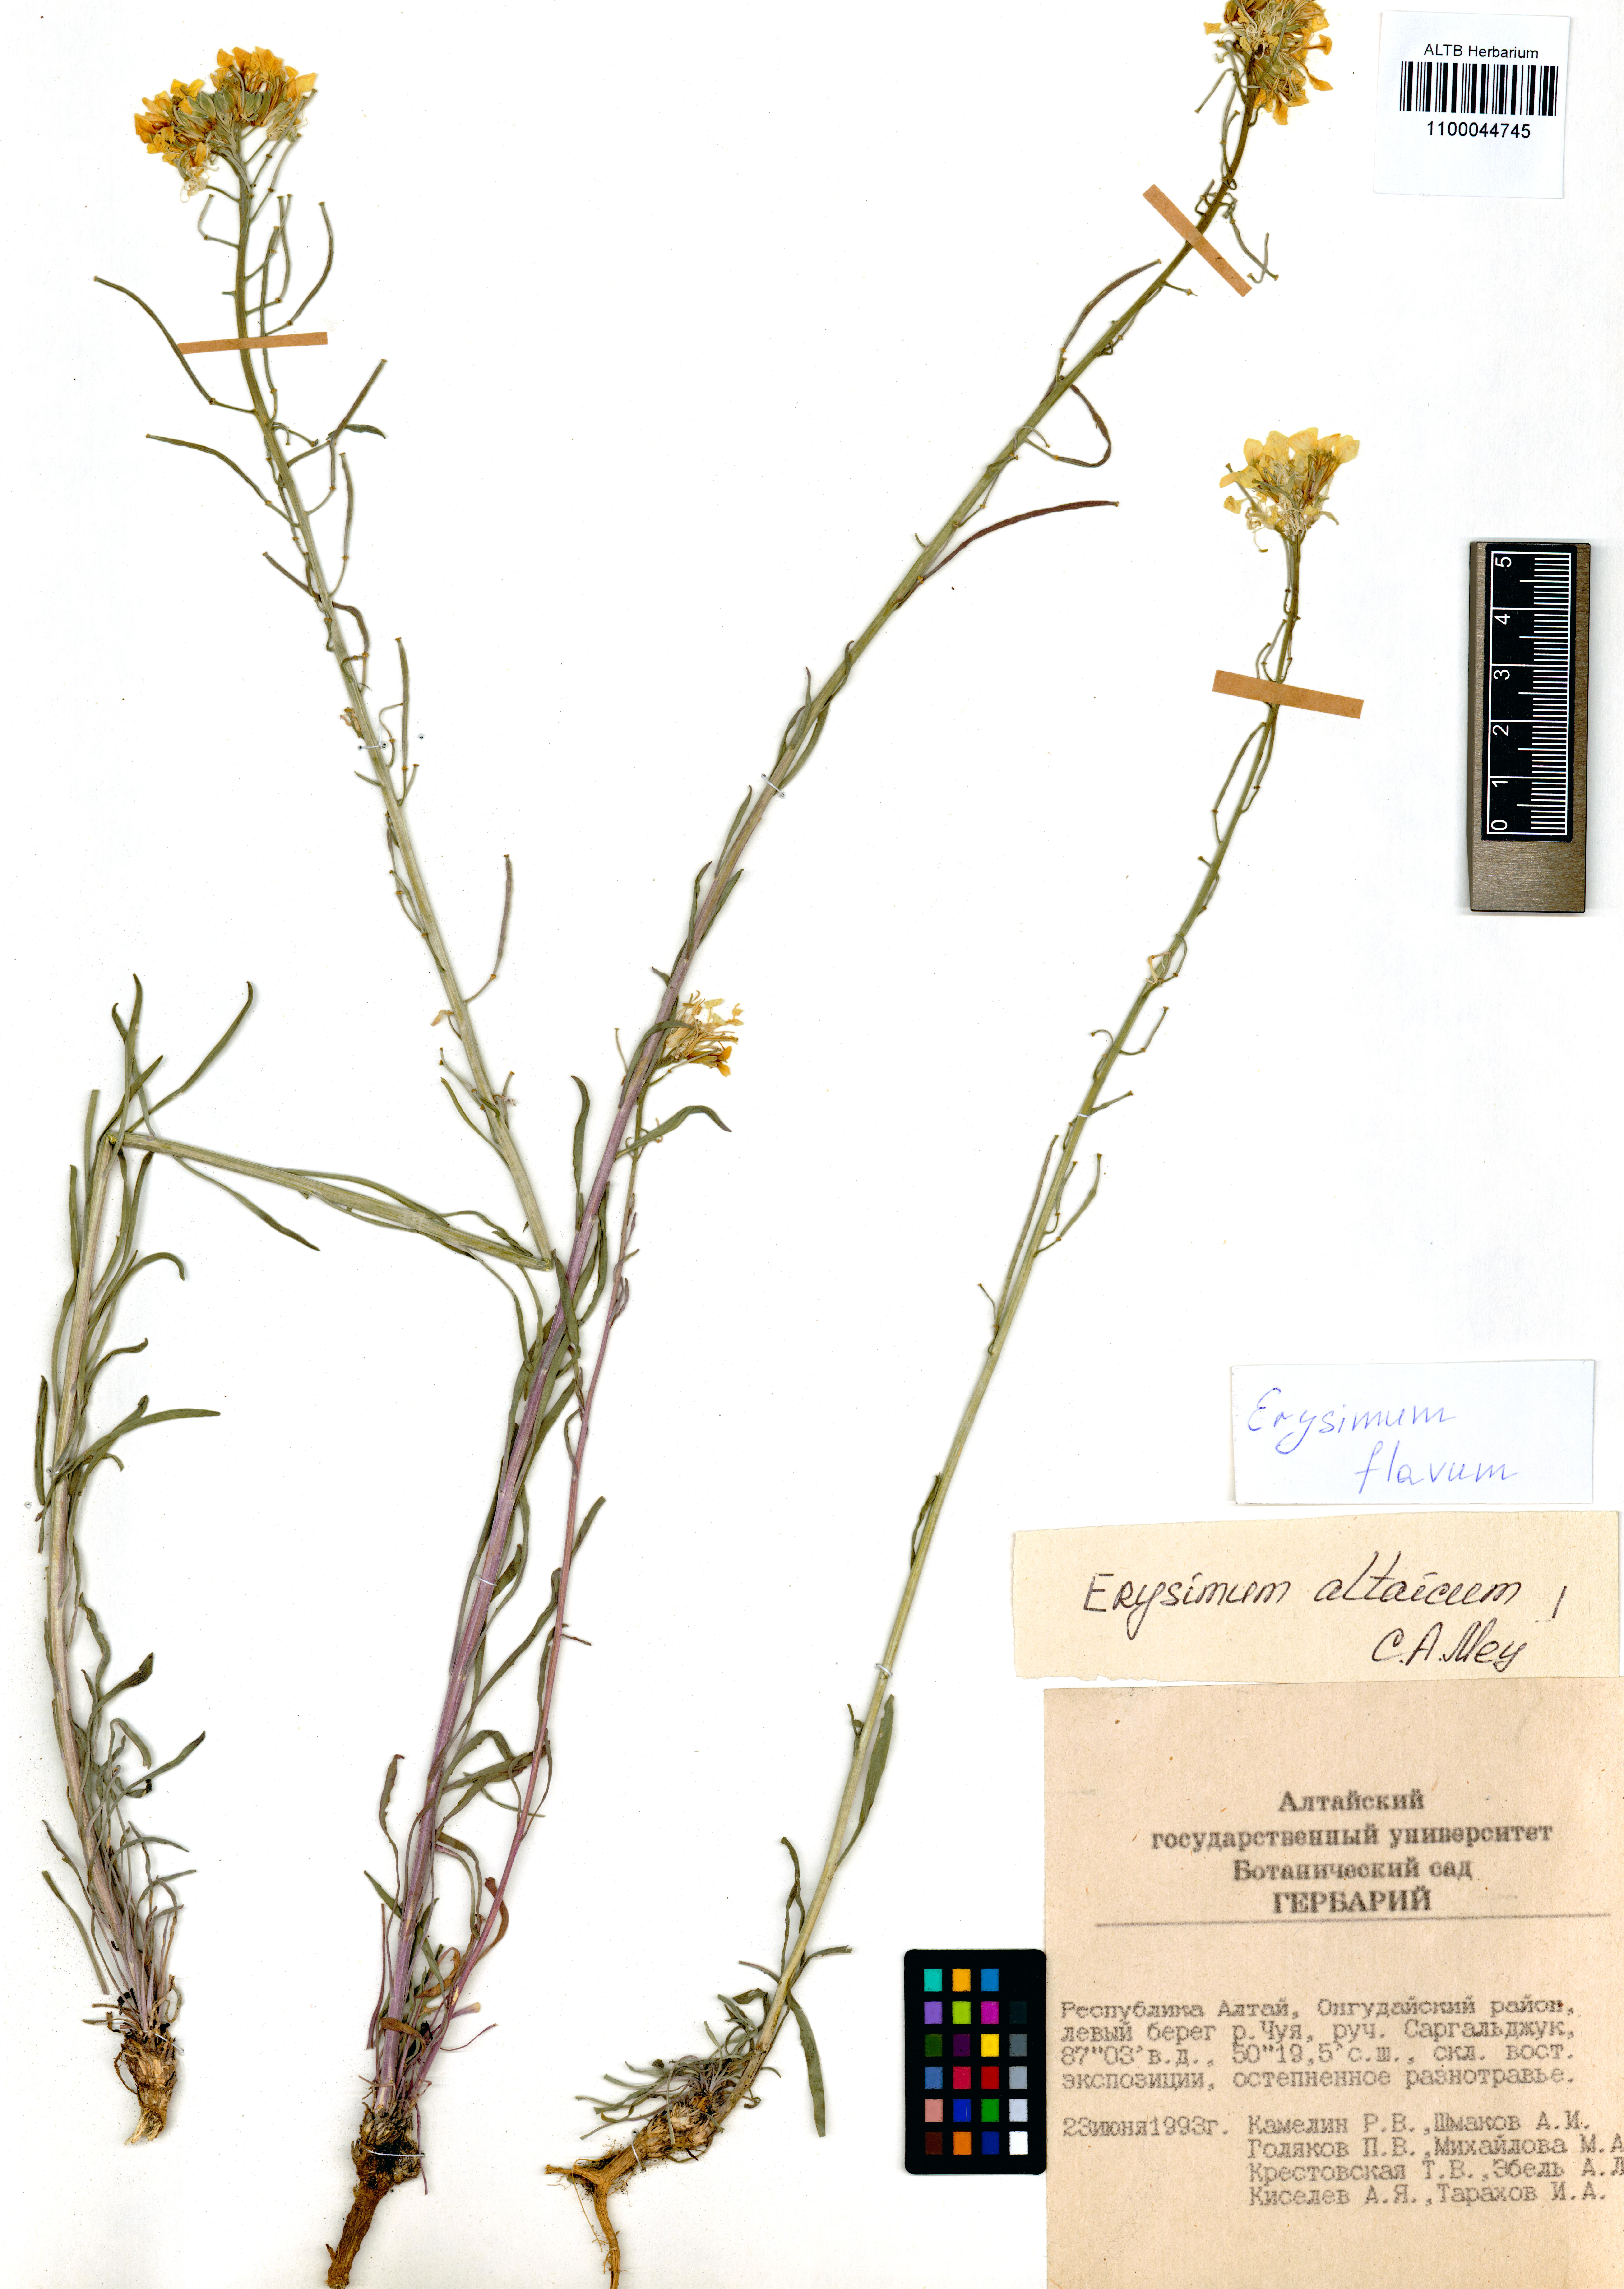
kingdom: Plantae
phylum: Tracheophyta
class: Magnoliopsida
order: Brassicales
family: Brassicaceae
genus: Erysimum
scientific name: Erysimum flavum
